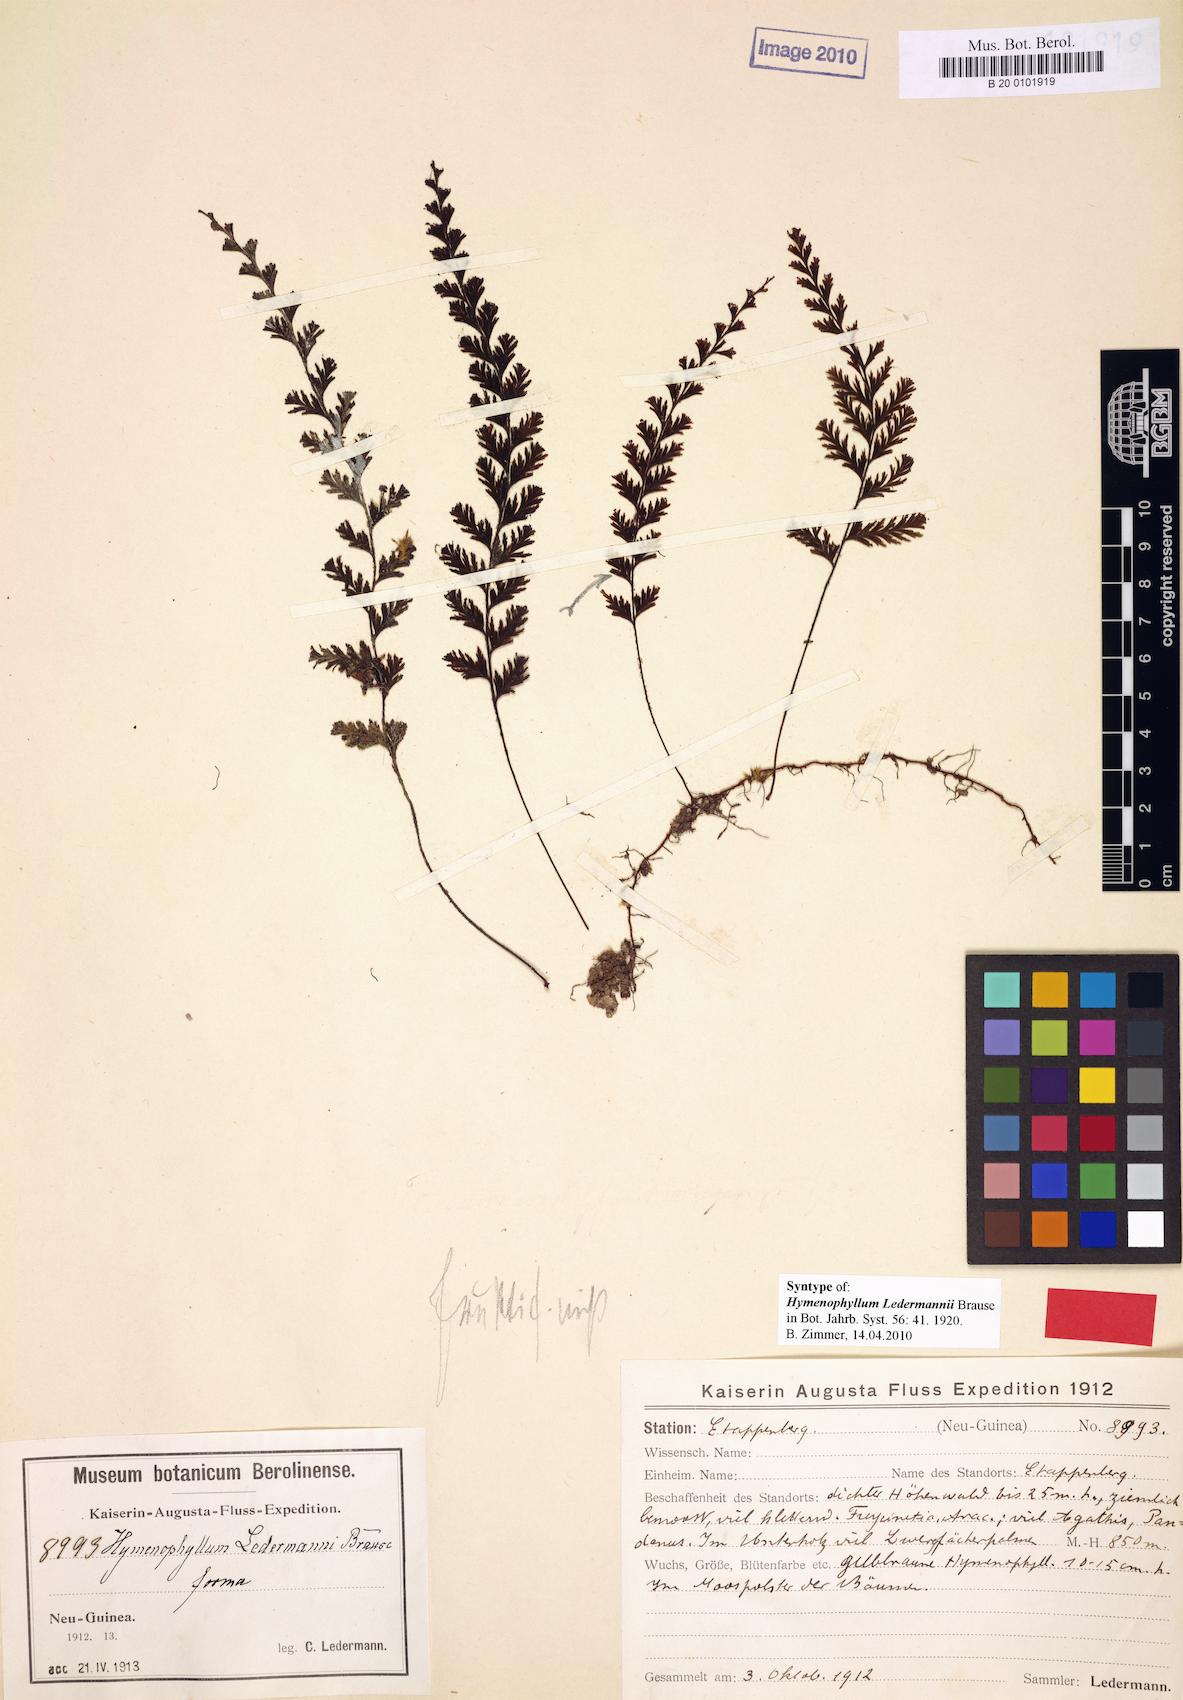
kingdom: Plantae
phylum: Tracheophyta
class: Polypodiopsida
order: Hymenophyllales
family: Hymenophyllaceae
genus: Hymenophyllum
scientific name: Hymenophyllum ledermannii
